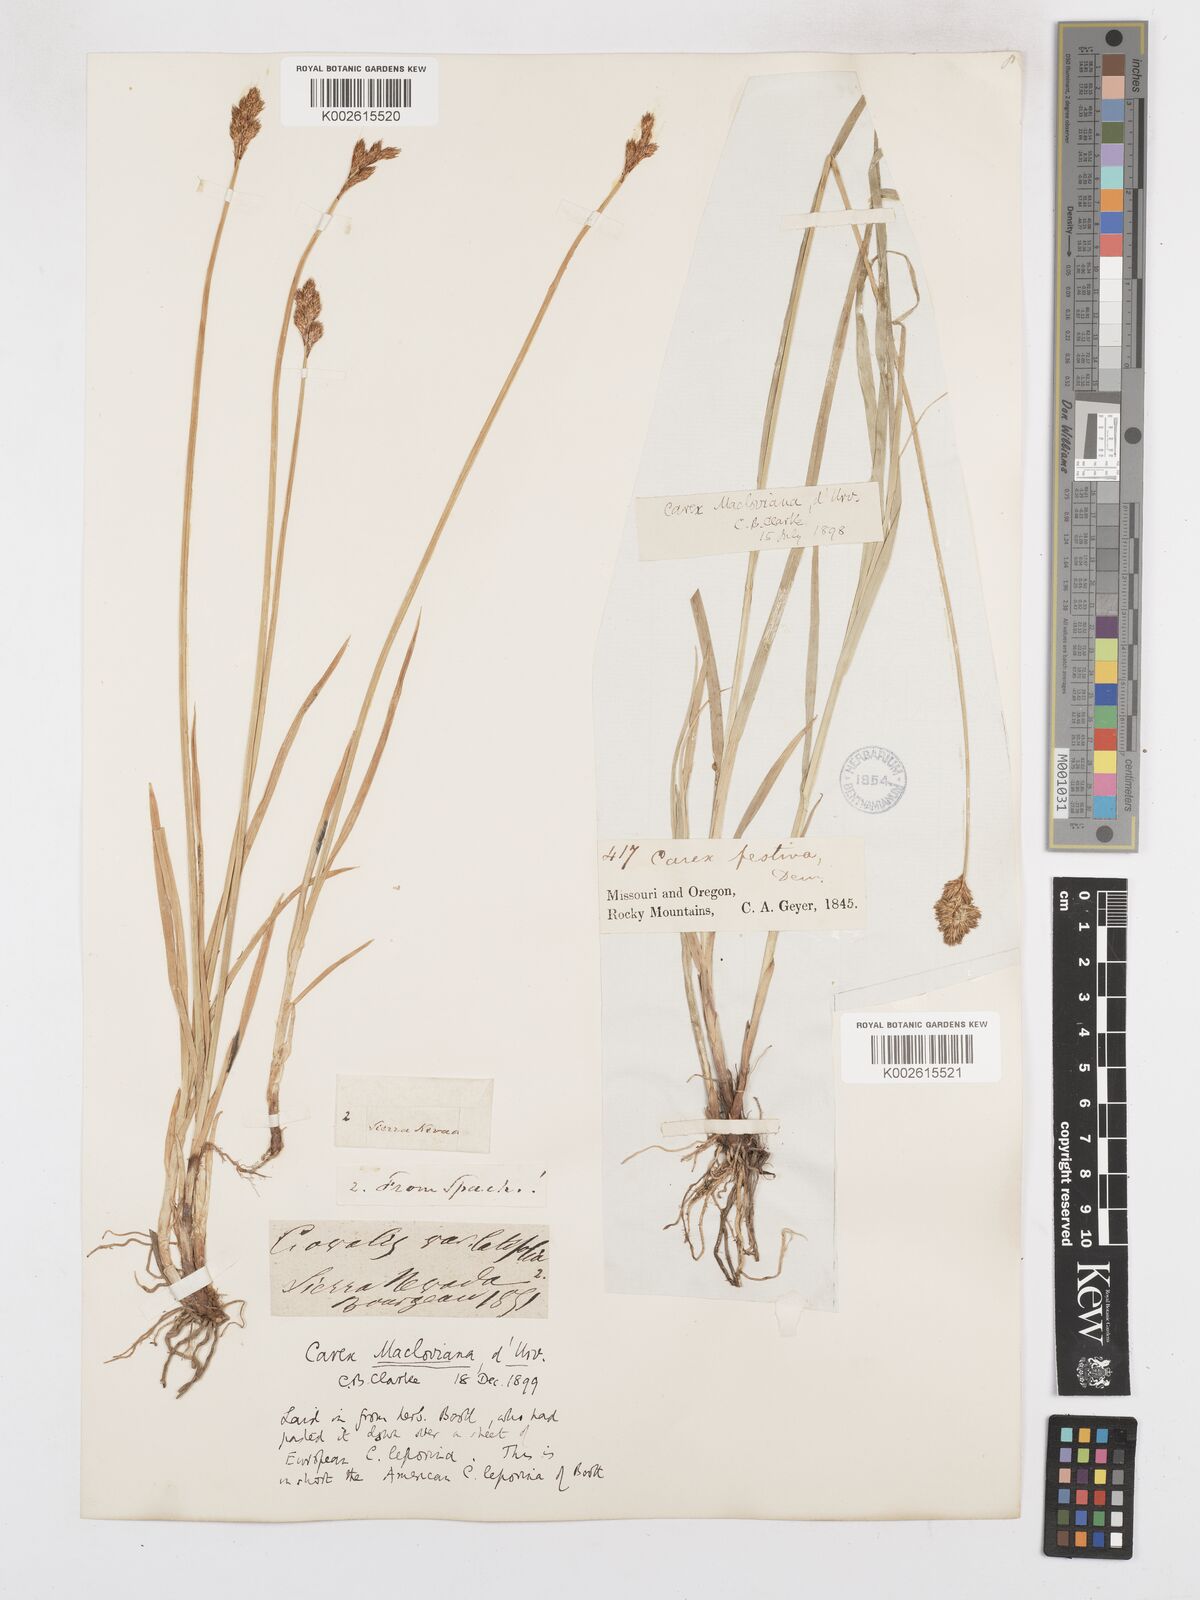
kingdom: Plantae
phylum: Tracheophyta
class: Liliopsida
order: Poales
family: Cyperaceae
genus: Carex
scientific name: Carex macloviana
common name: Falkland island sedge
